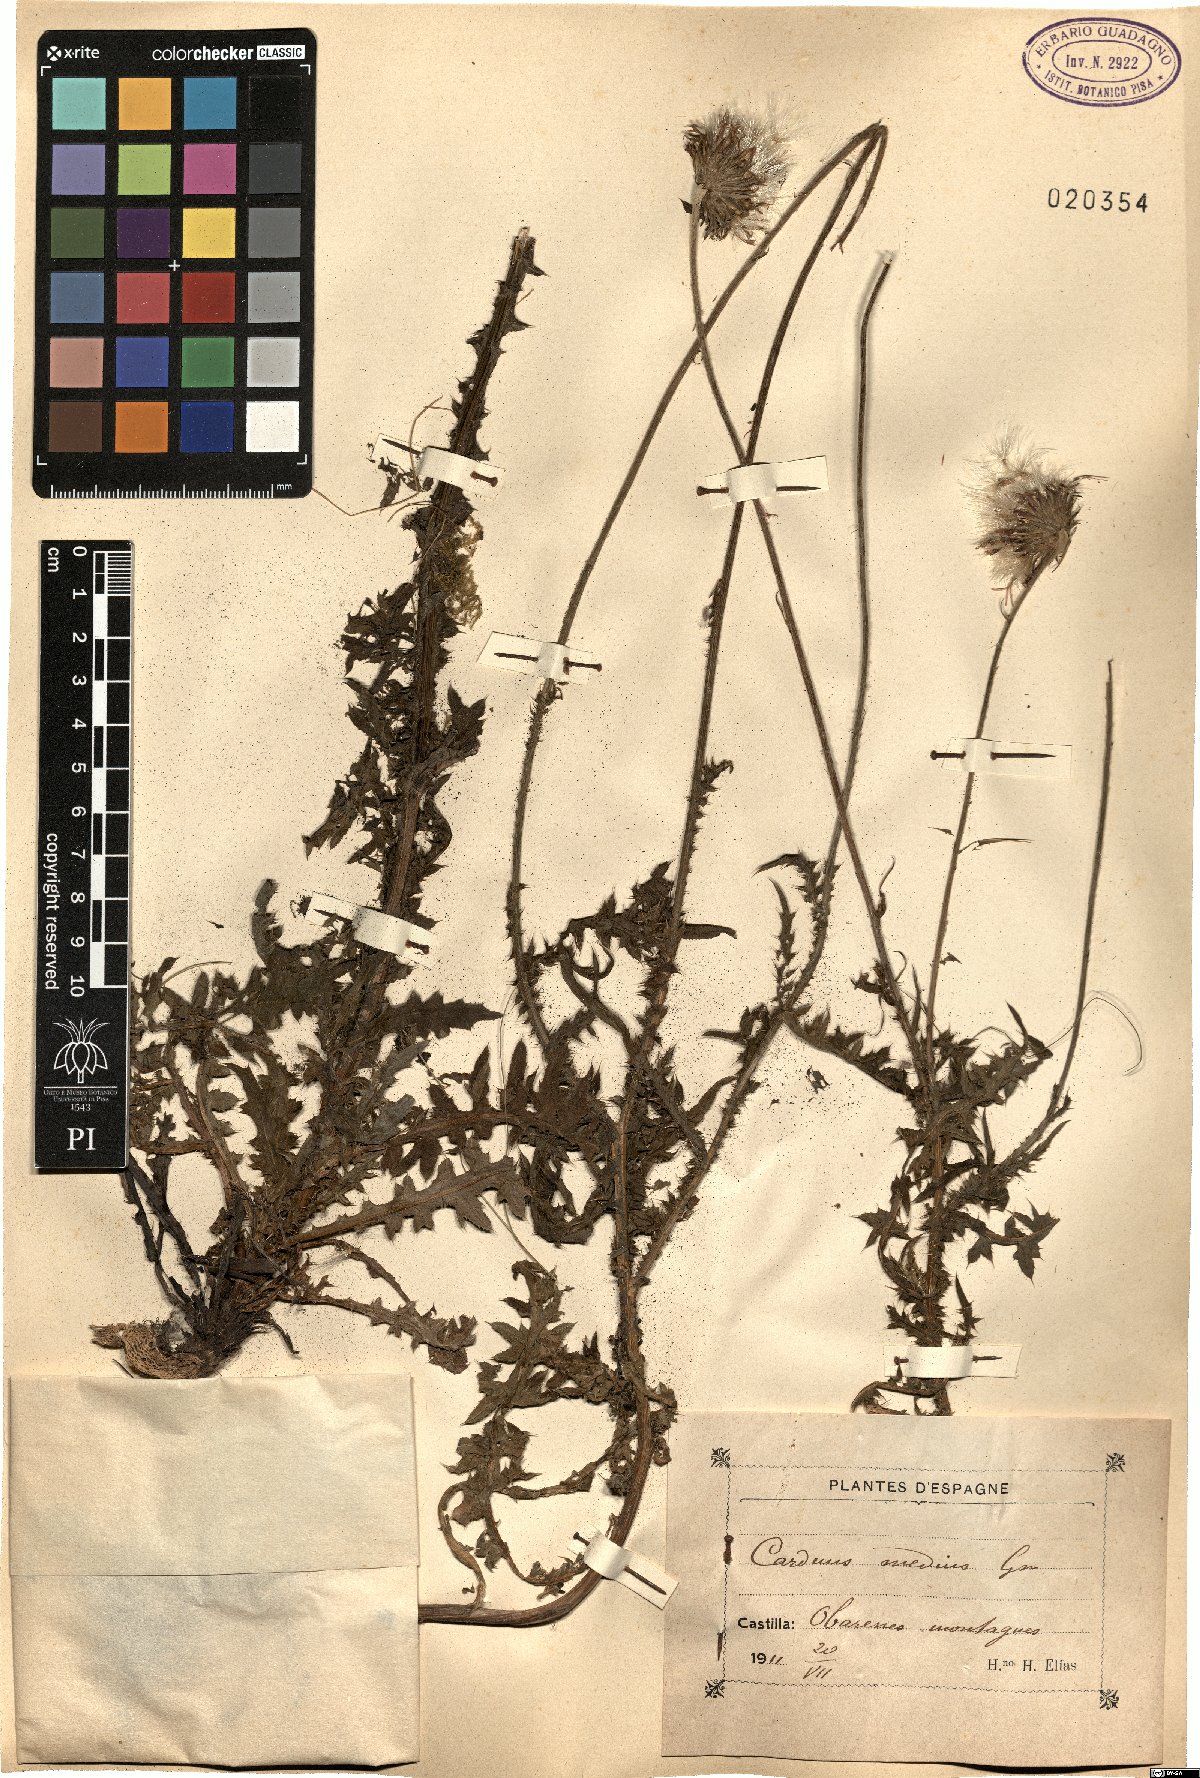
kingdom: Plantae
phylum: Tracheophyta
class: Magnoliopsida
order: Asterales
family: Asteraceae
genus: Carduus
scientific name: Carduus defloratus
